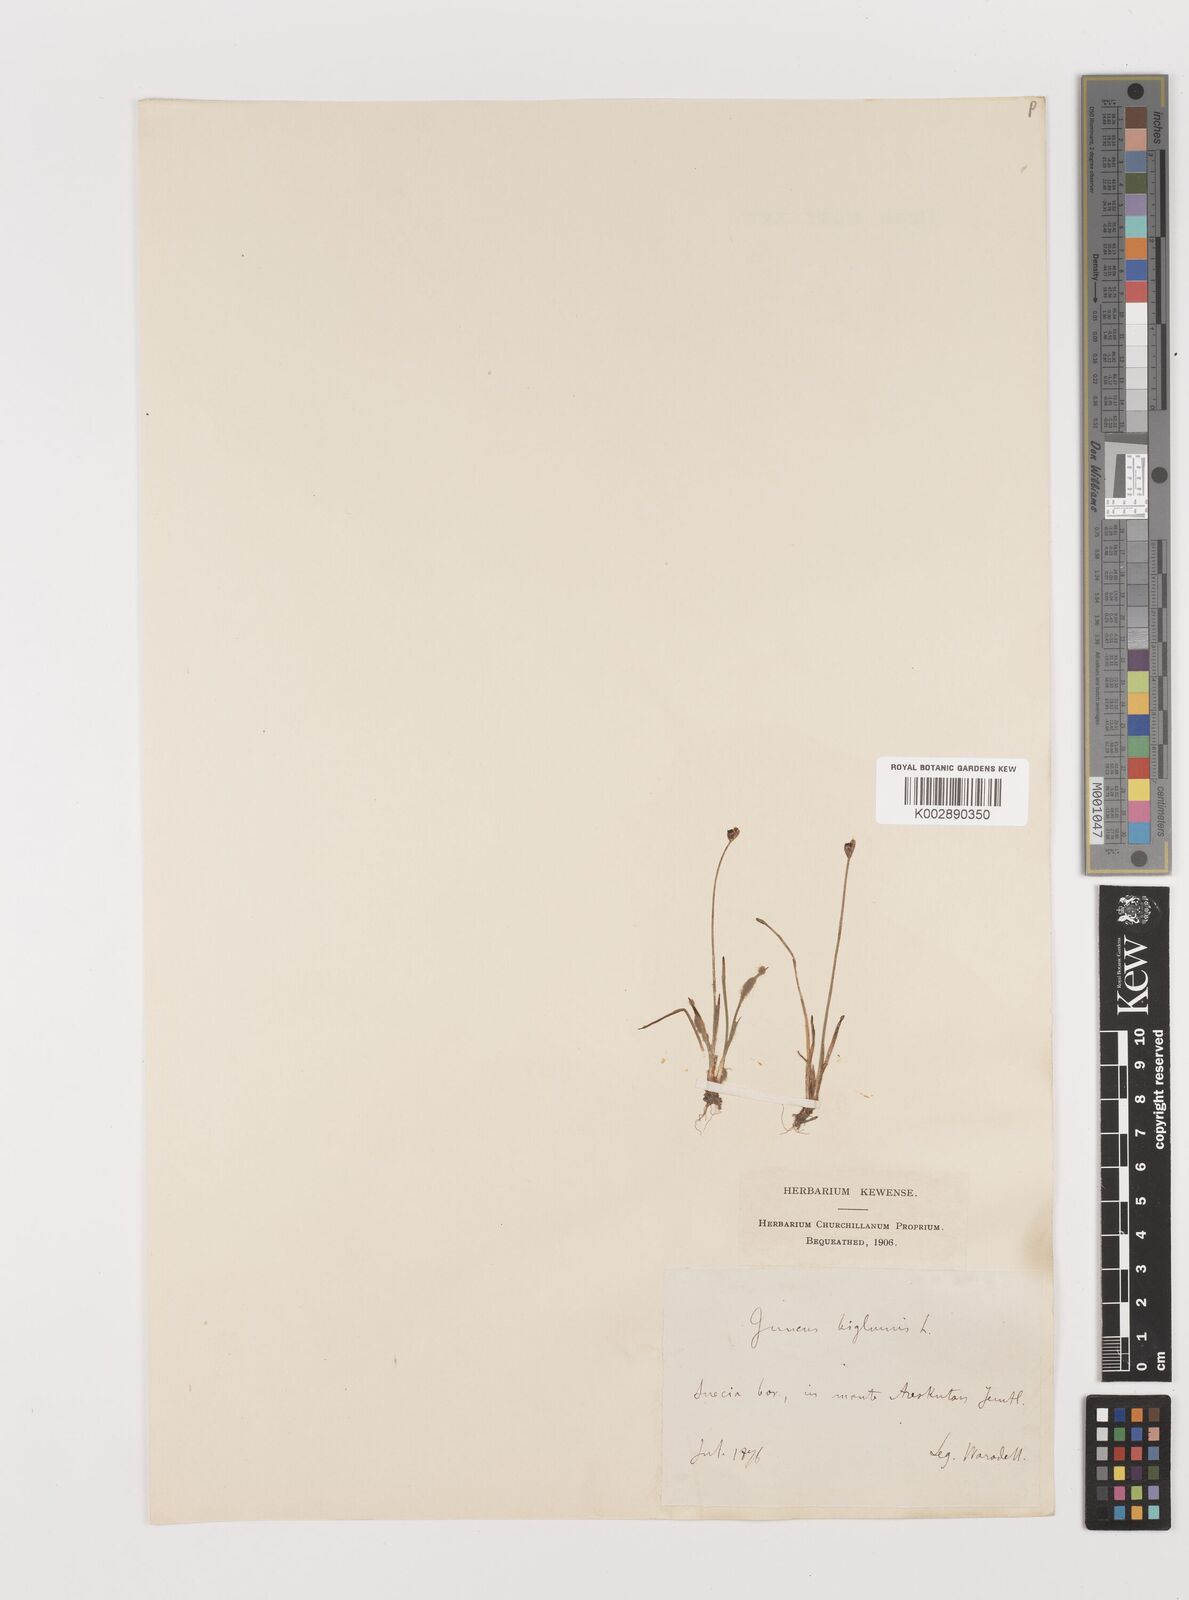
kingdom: Plantae
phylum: Tracheophyta
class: Liliopsida
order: Poales
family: Juncaceae
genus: Juncus
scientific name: Juncus biglumis
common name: Two-flowered rush
